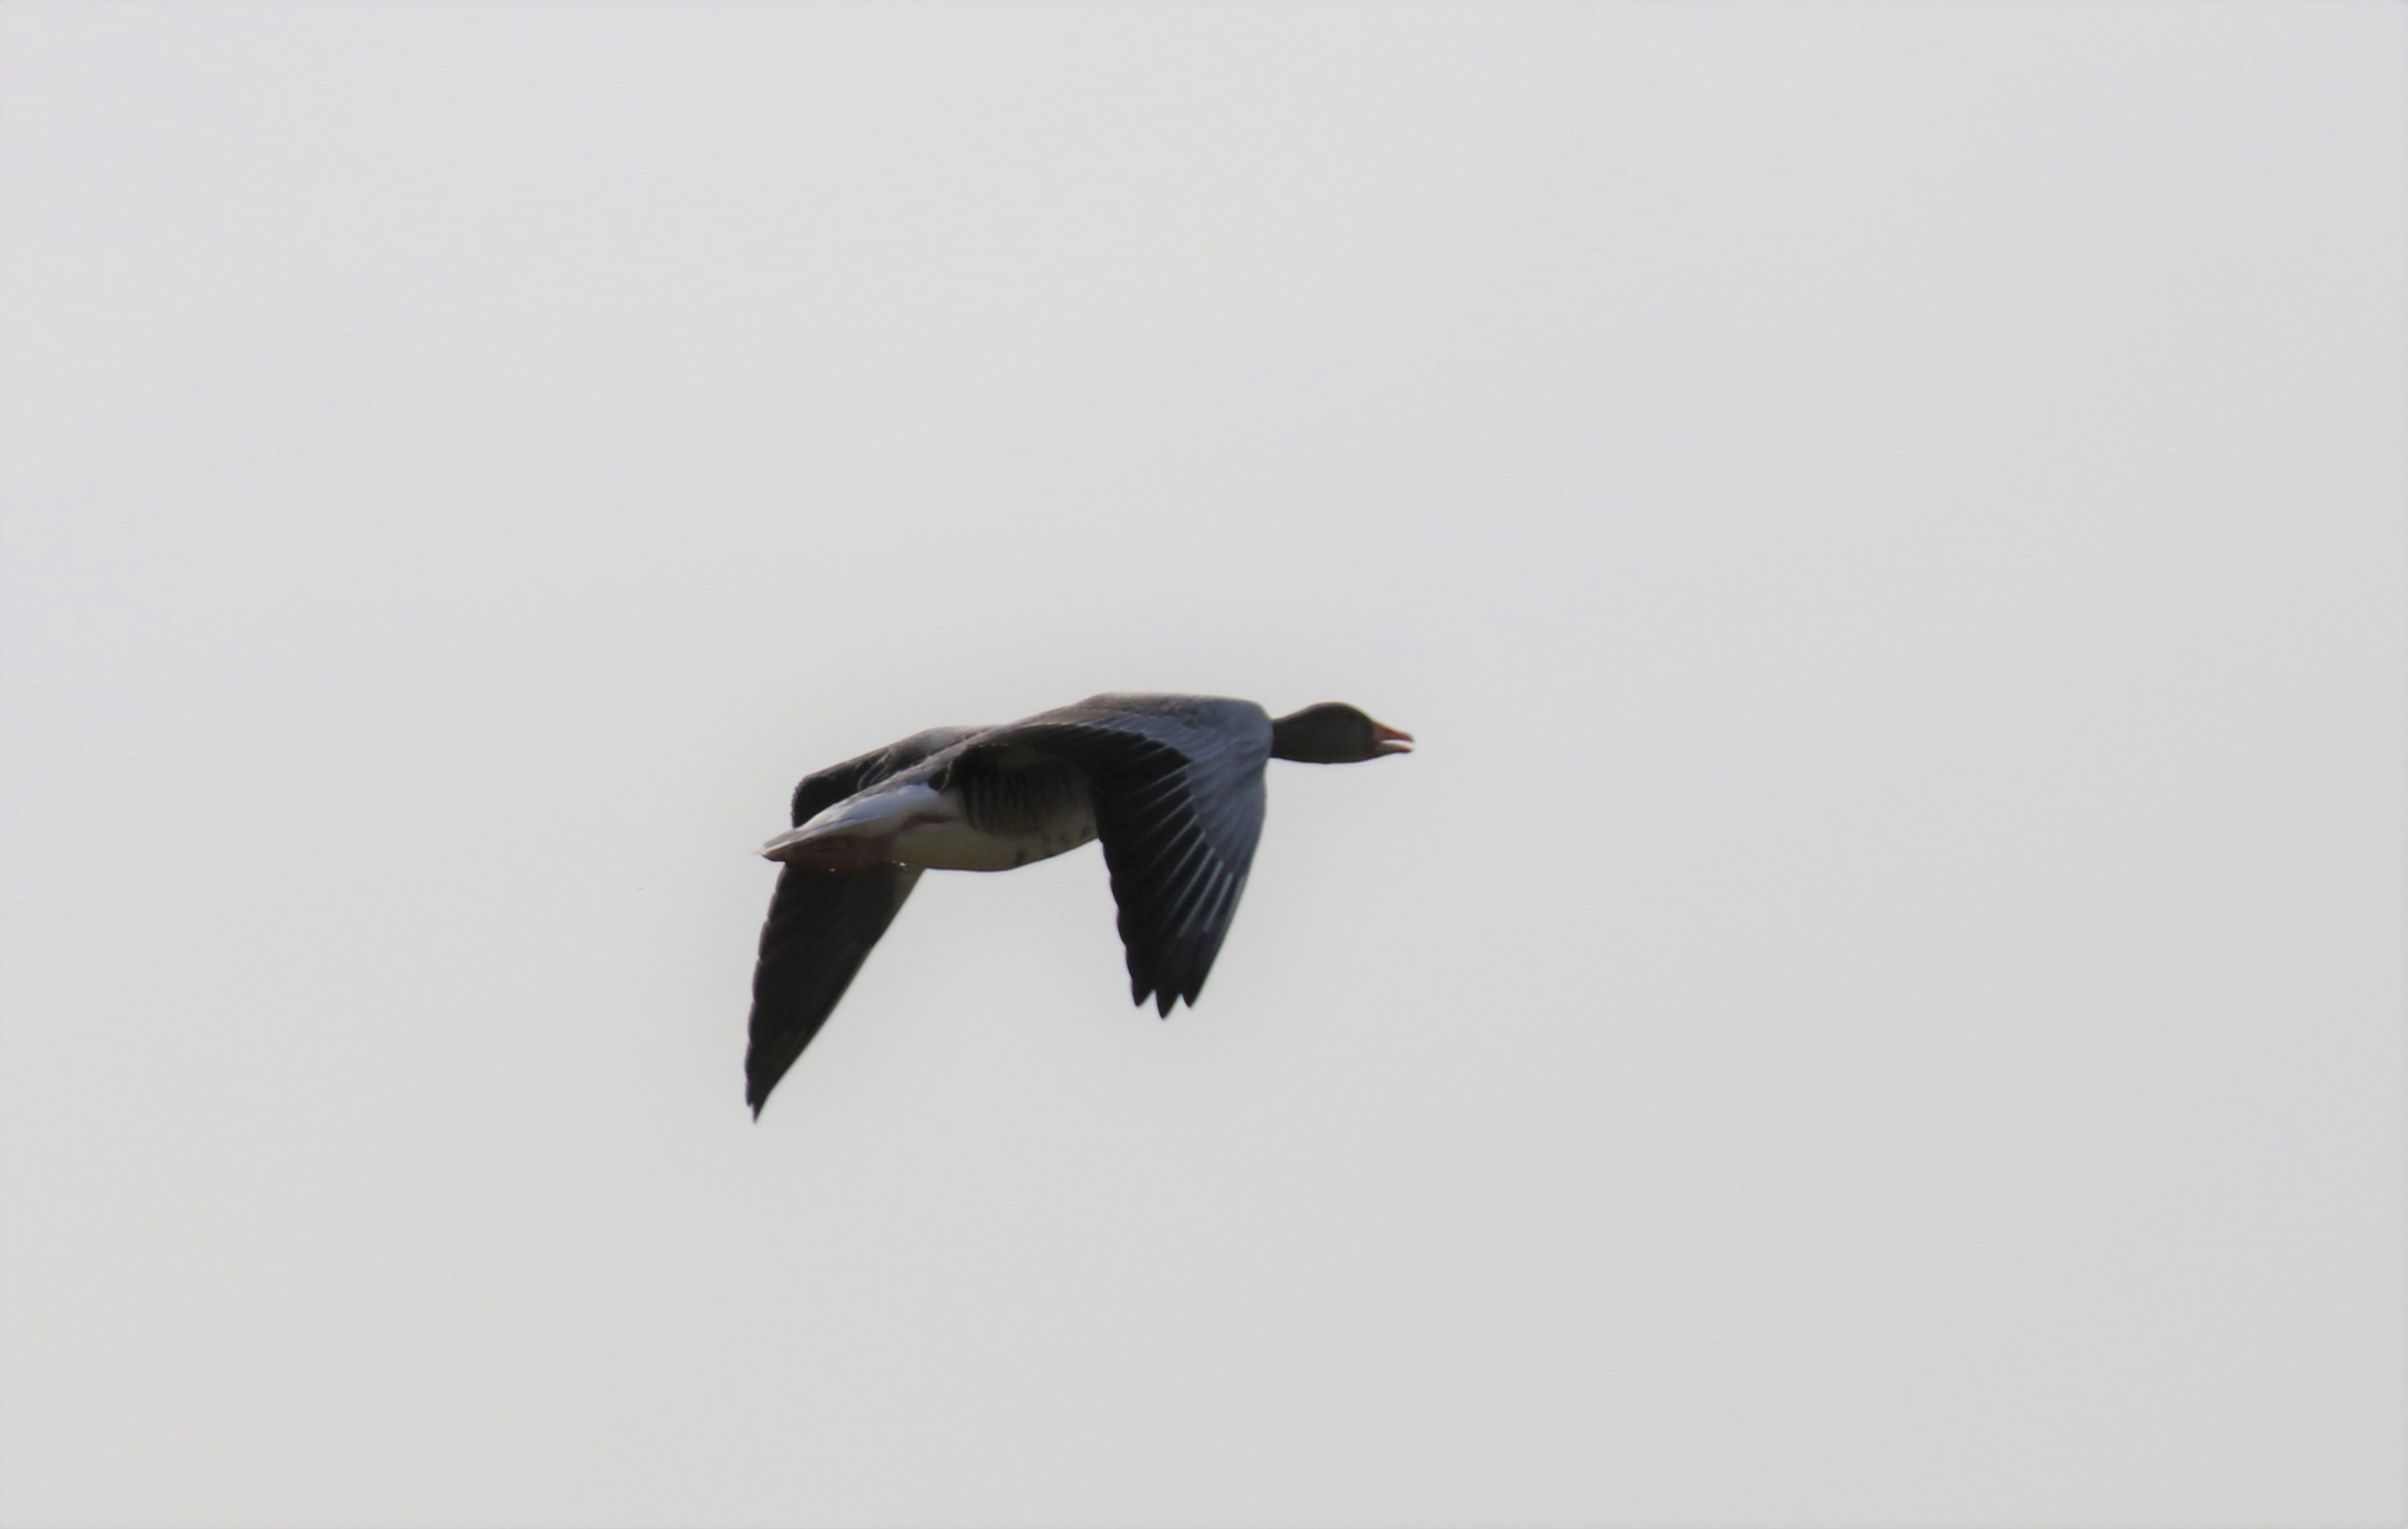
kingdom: Animalia
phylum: Chordata
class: Aves
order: Anseriformes
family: Anatidae
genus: Anser
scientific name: Anser anser
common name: Grågås
